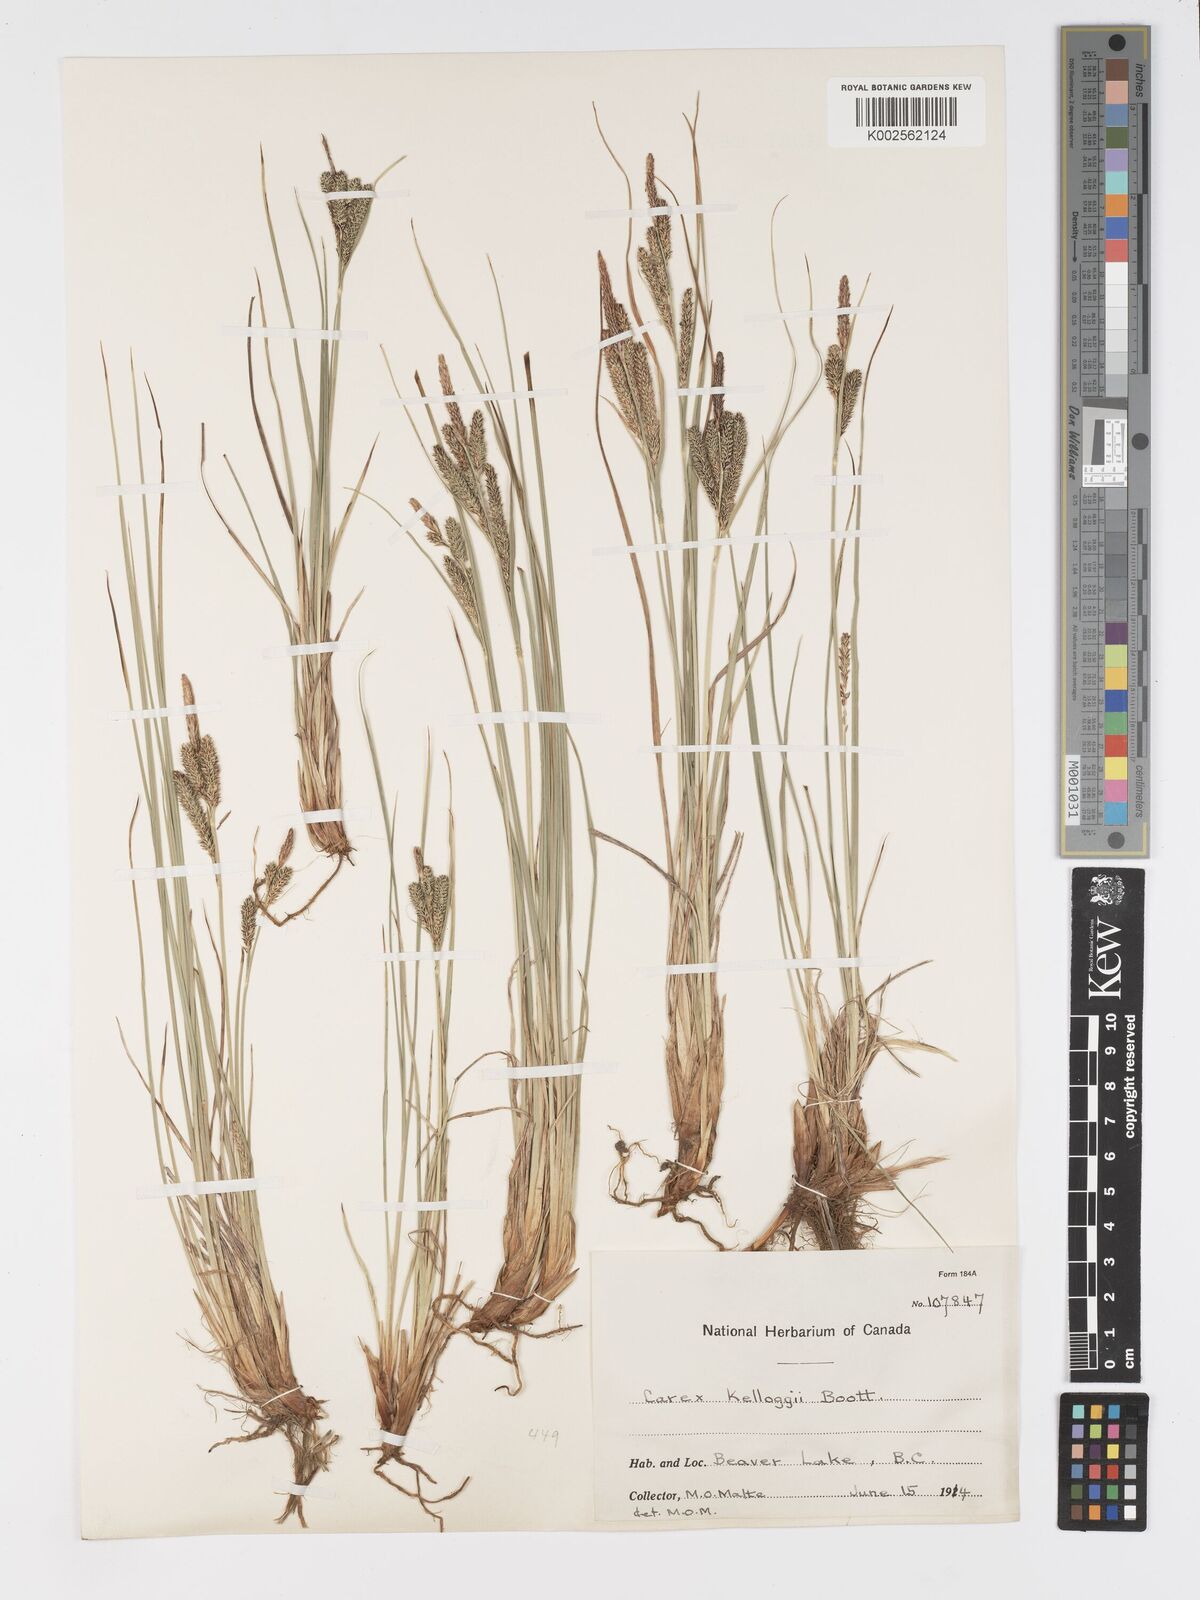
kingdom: Plantae
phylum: Tracheophyta
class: Liliopsida
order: Poales
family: Cyperaceae
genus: Carex
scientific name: Carex kelloggii
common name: Kellogg's sedge
